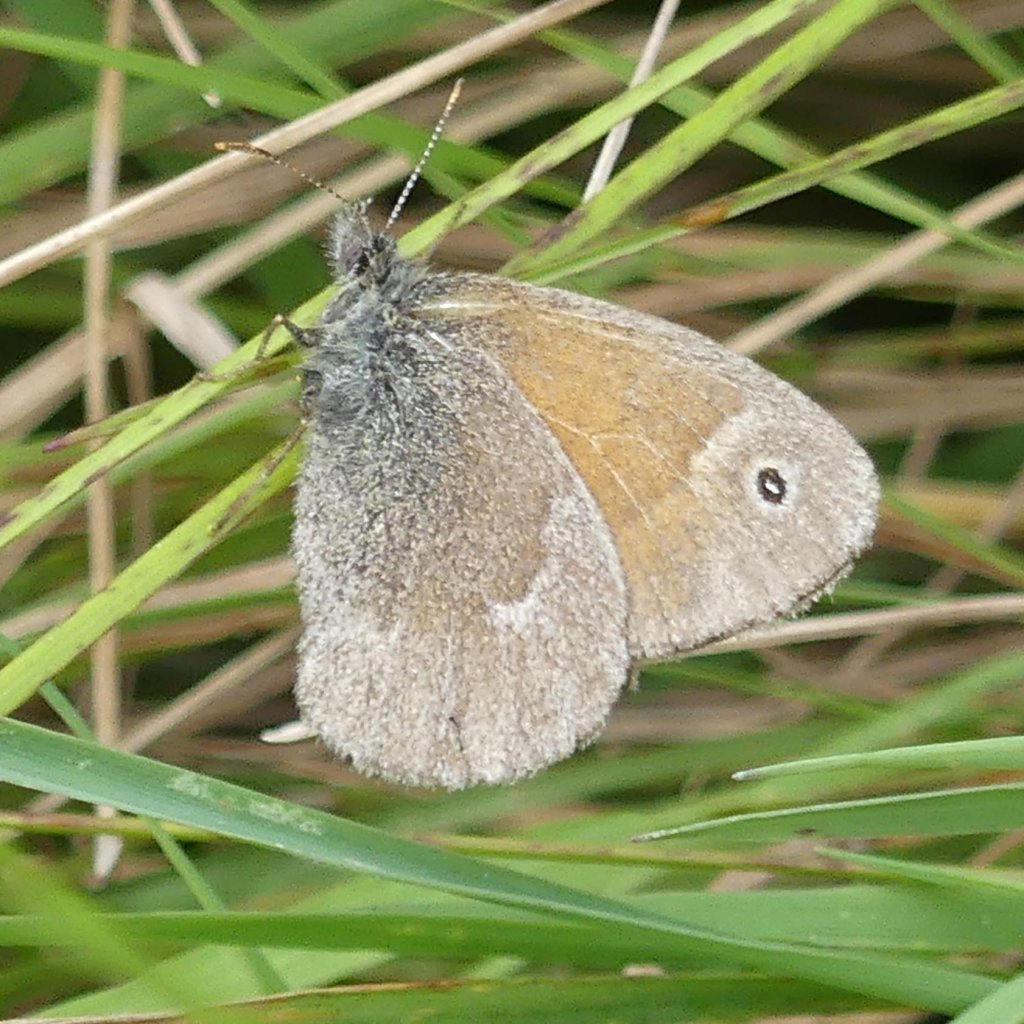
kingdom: Animalia
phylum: Arthropoda
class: Insecta
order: Lepidoptera
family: Nymphalidae
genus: Coenonympha
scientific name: Coenonympha tullia
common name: Large Heath
